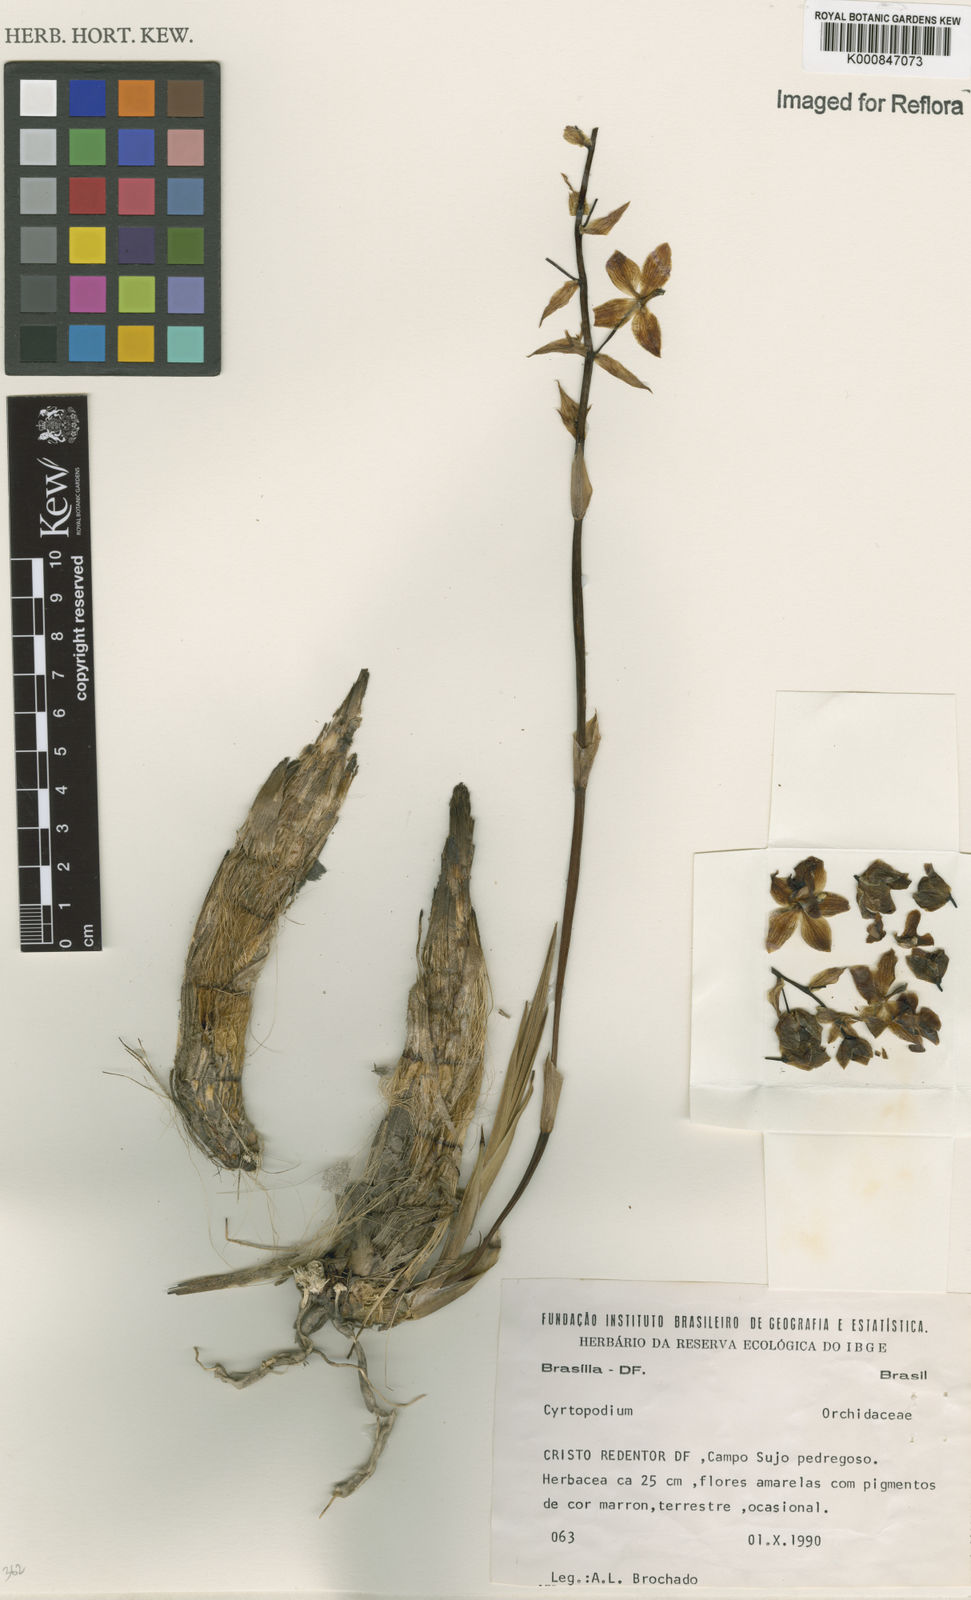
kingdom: Plantae
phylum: Tracheophyta
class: Liliopsida
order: Asparagales
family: Orchidaceae
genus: Cyrtopodium
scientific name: Cyrtopodium
